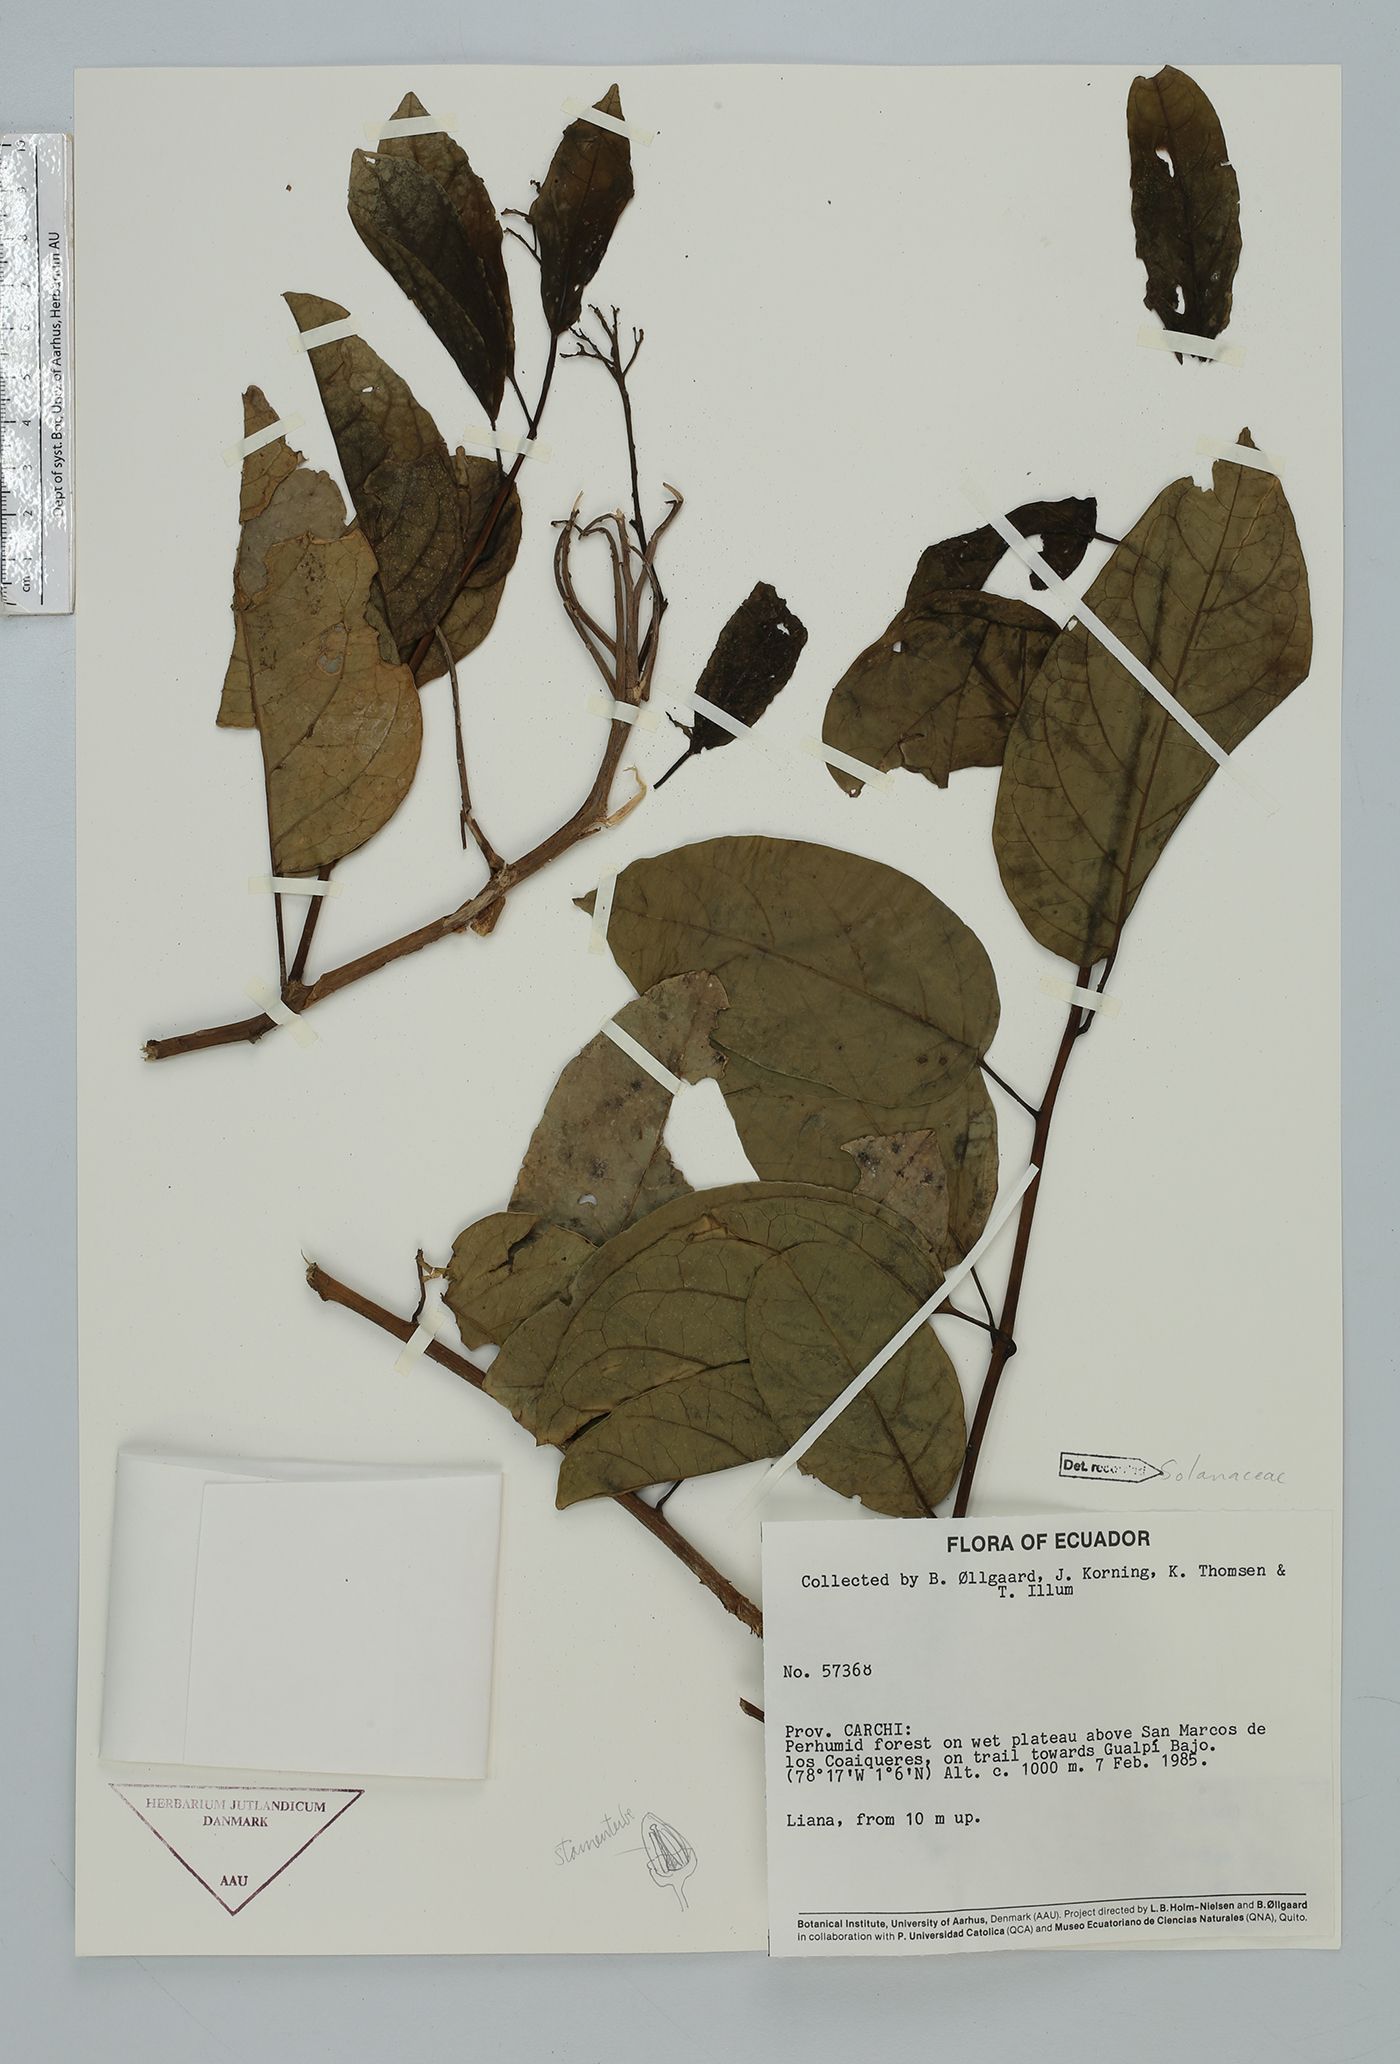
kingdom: Plantae
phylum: Tracheophyta
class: Magnoliopsida
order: Solanales
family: Solanaceae
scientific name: Solanaceae
